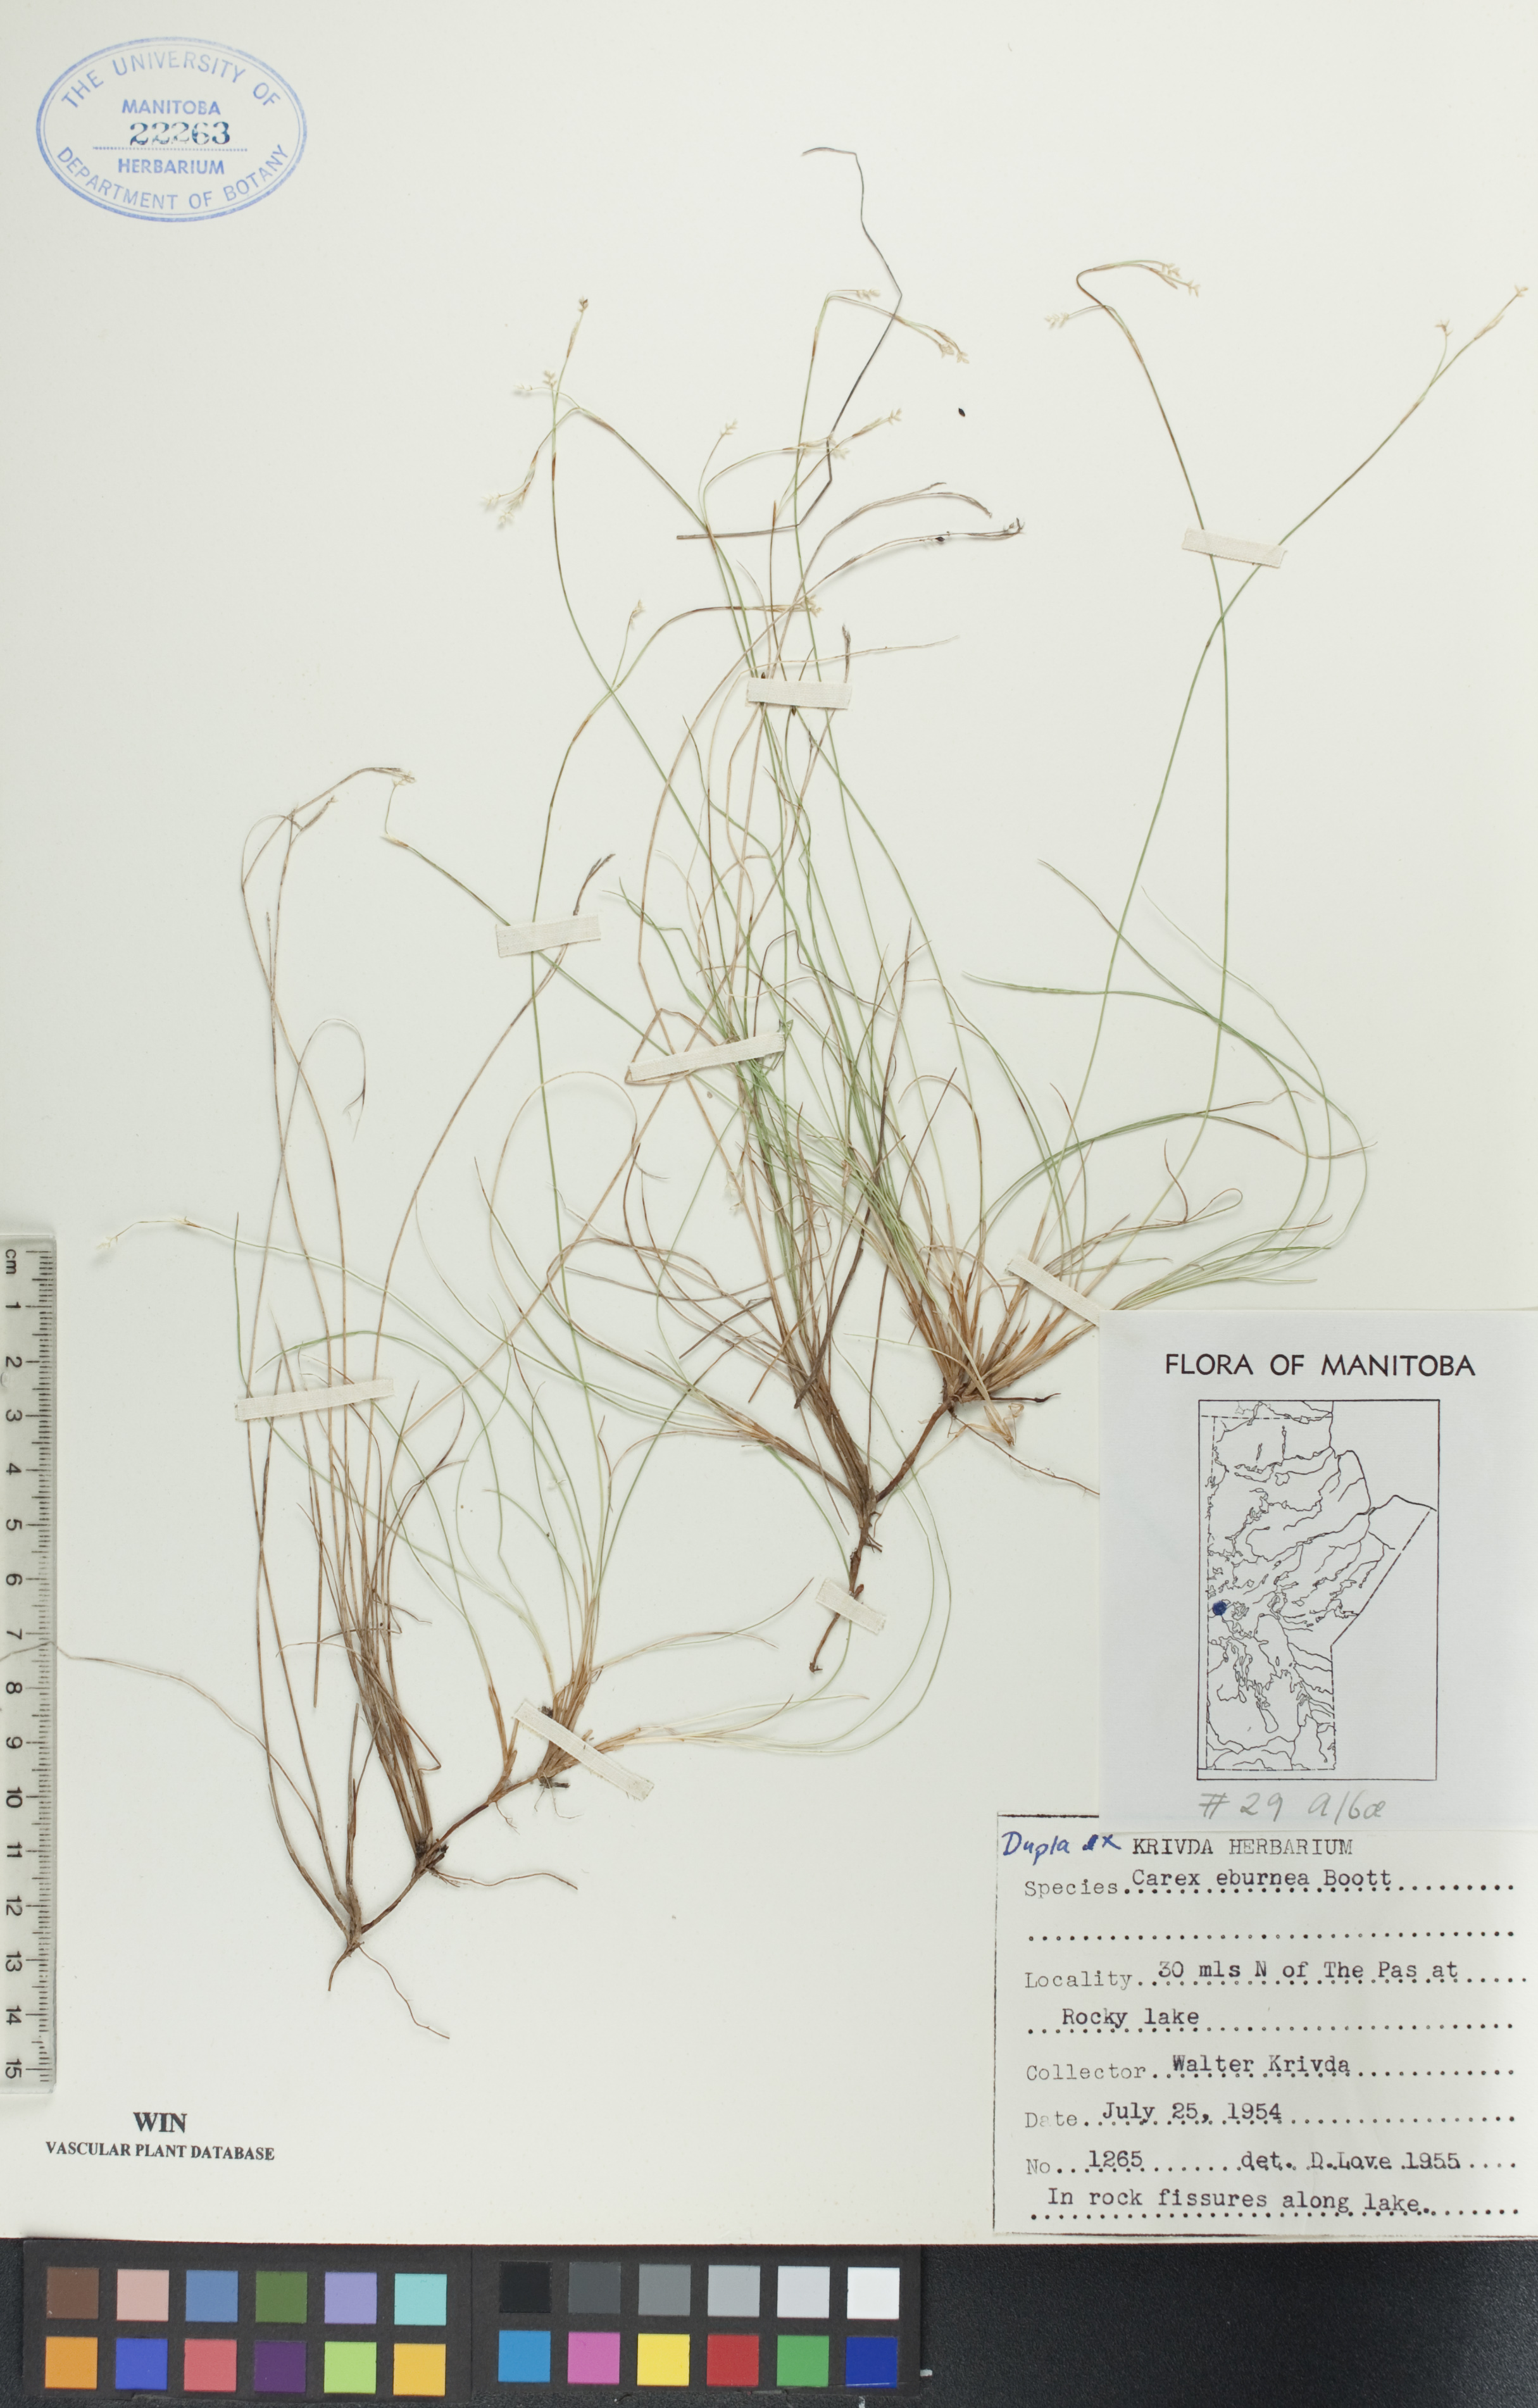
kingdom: Plantae
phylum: Tracheophyta
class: Liliopsida
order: Poales
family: Cyperaceae
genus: Carex
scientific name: Carex eburnea
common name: Bristle-leaved sedge
